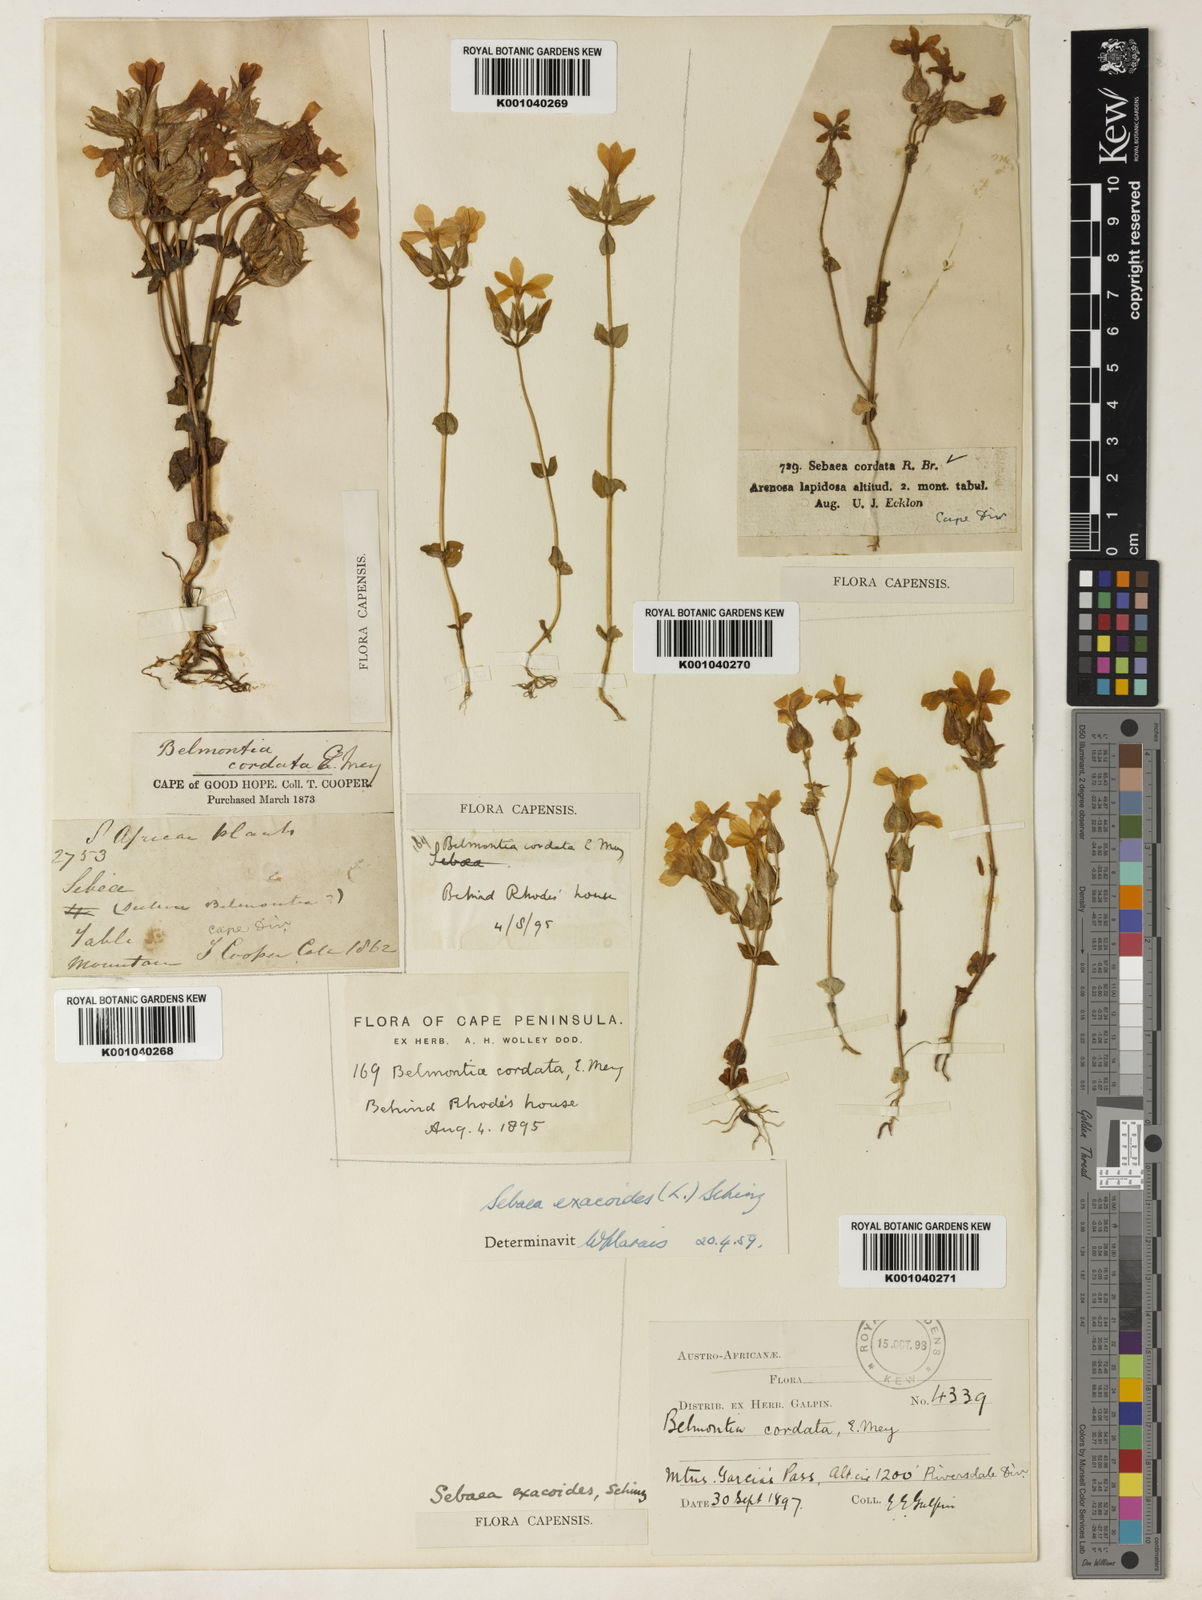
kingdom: Plantae
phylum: Tracheophyta
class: Magnoliopsida
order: Gentianales
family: Gentianaceae
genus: Sebaea
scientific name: Sebaea exacoides
